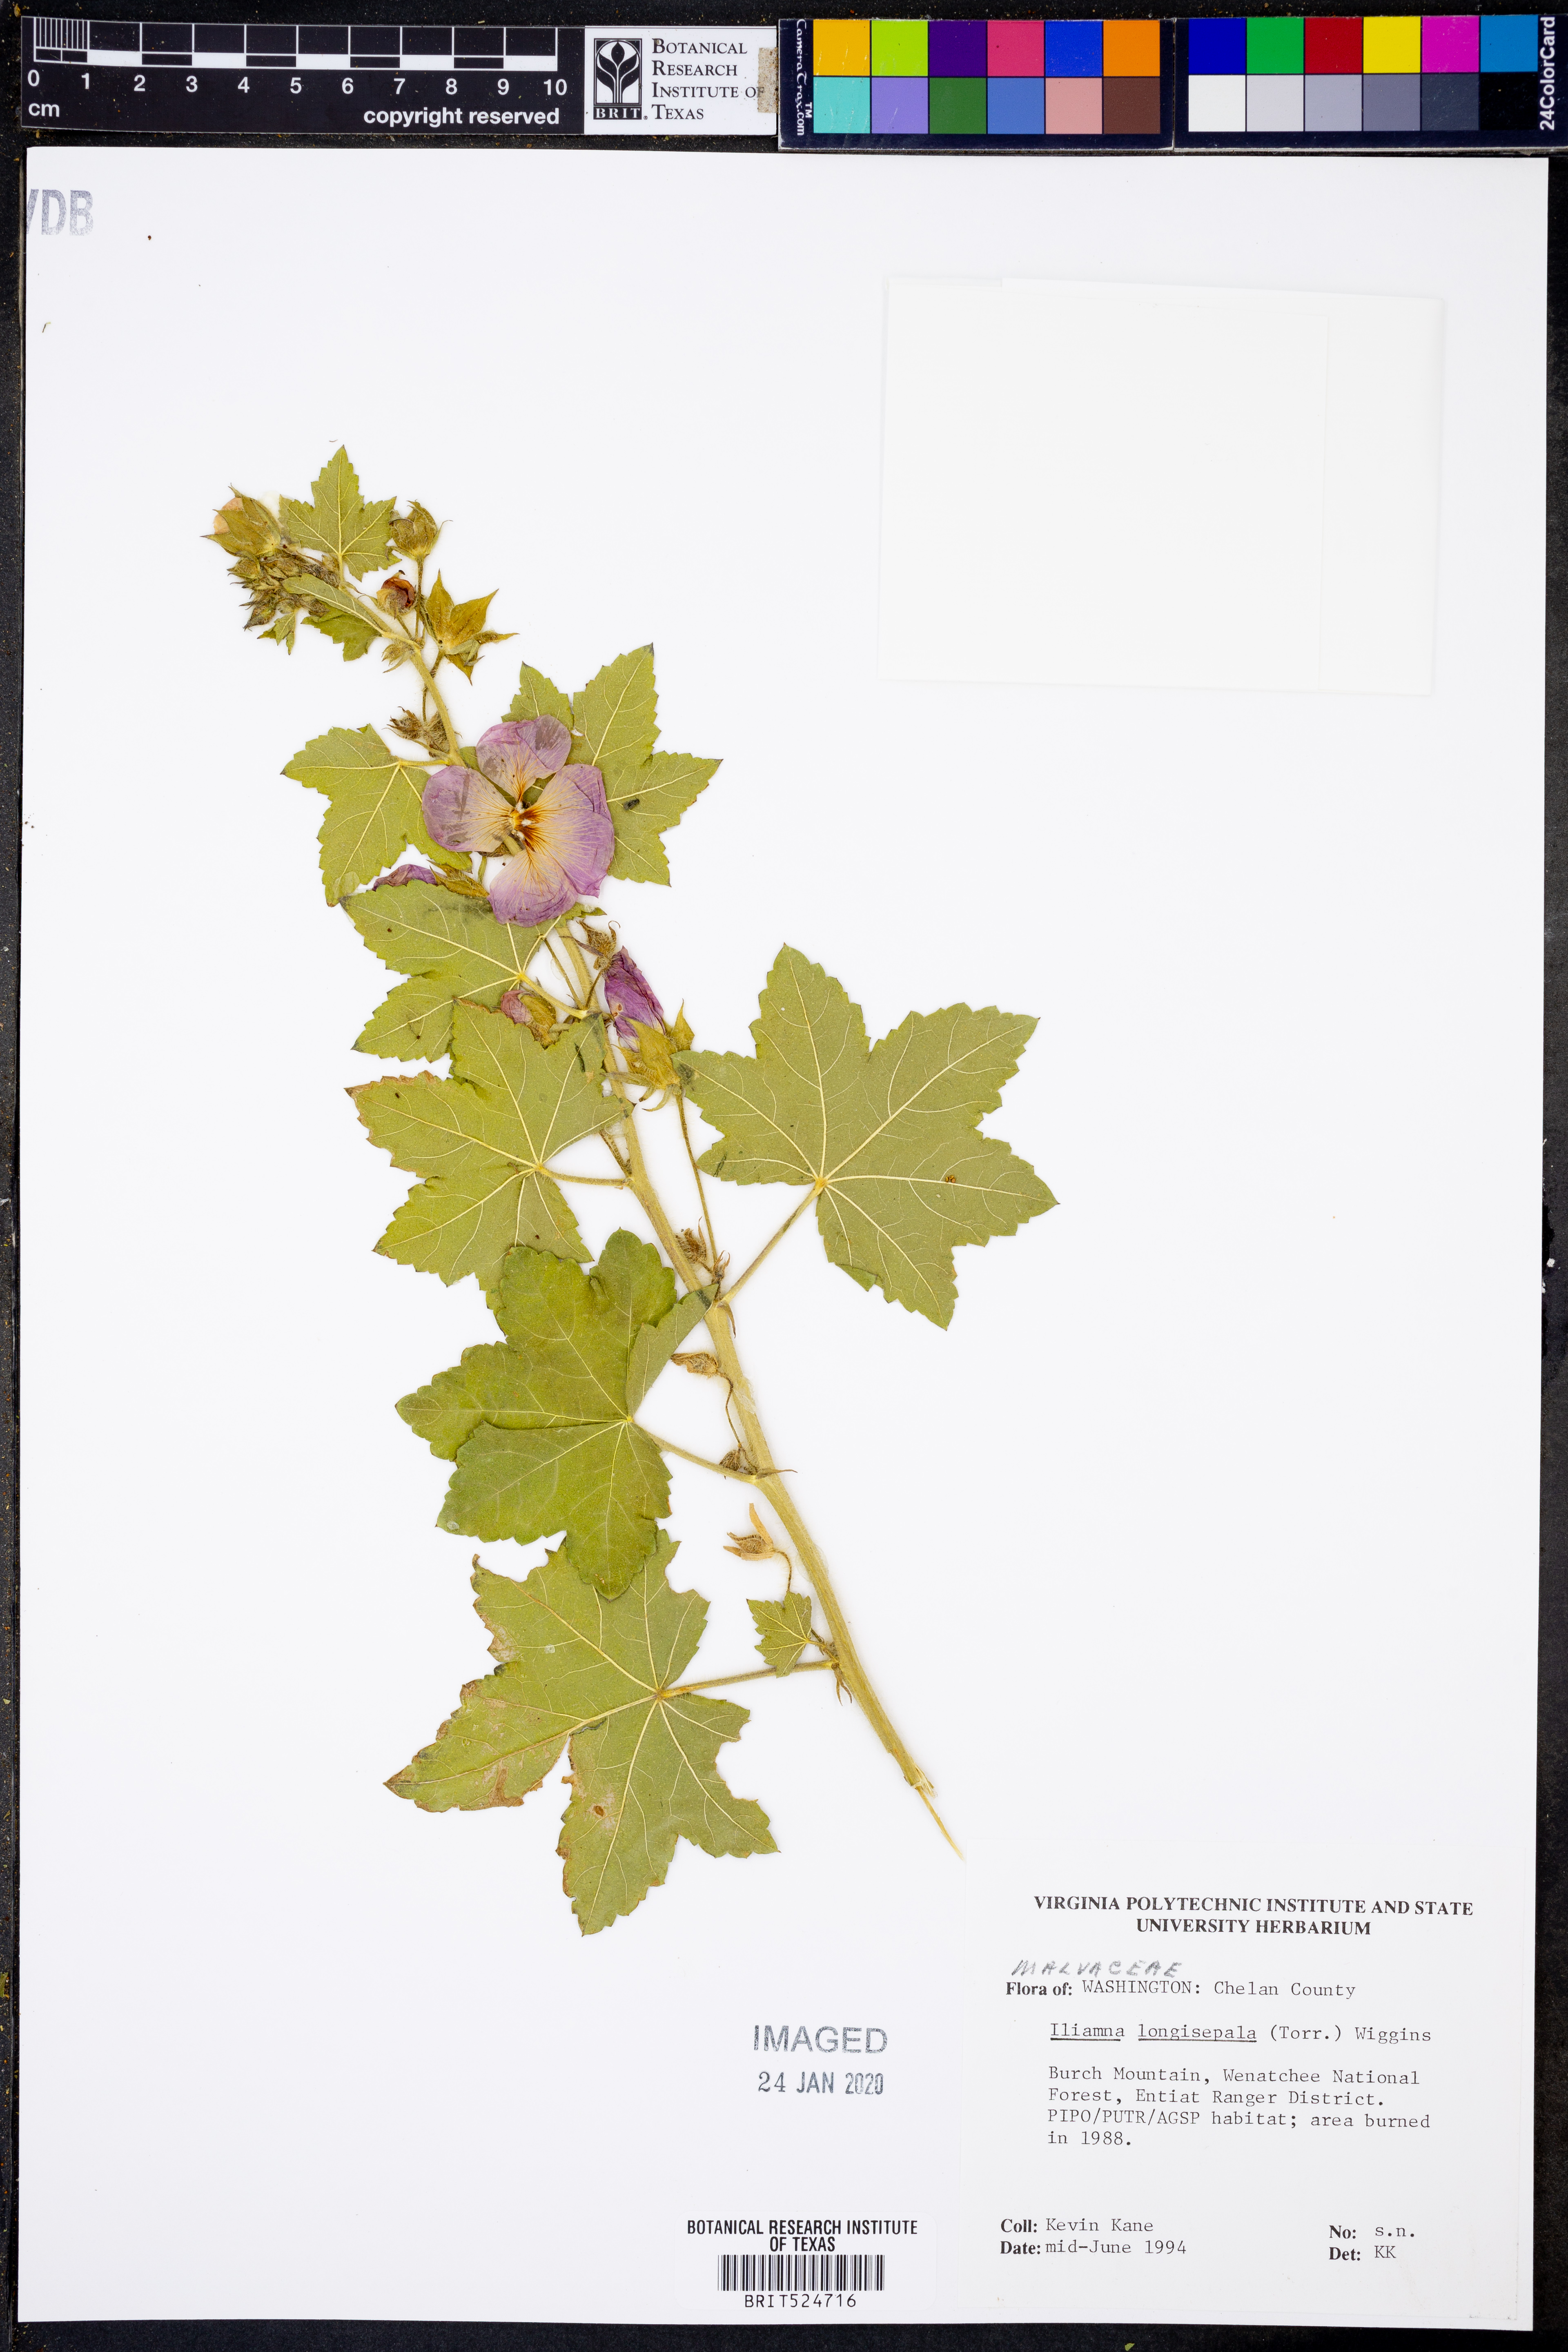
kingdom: Plantae
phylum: Tracheophyta
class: Magnoliopsida
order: Malvales
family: Malvaceae
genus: Iliamna
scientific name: Iliamna longisepala
